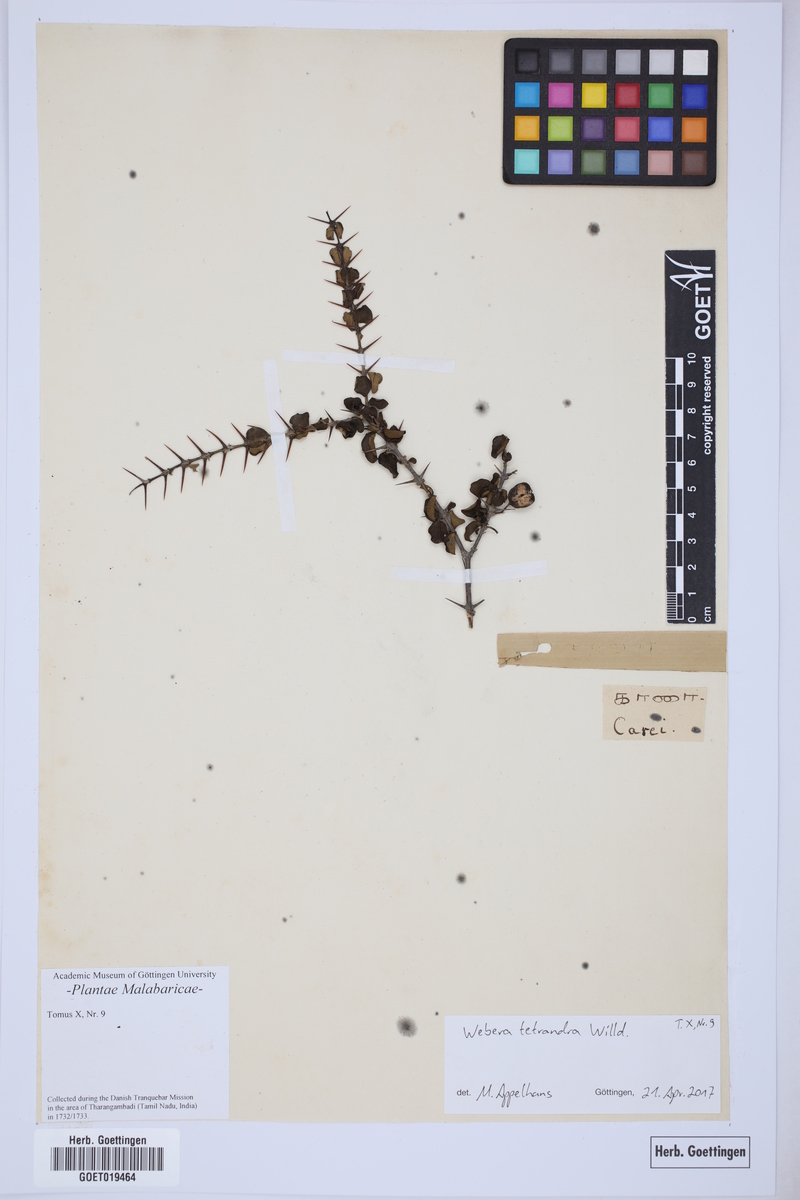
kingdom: Plantae
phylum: Tracheophyta
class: Magnoliopsida
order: Gentianales
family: Rubiaceae
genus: Canthium
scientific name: Canthium coromandelicum
